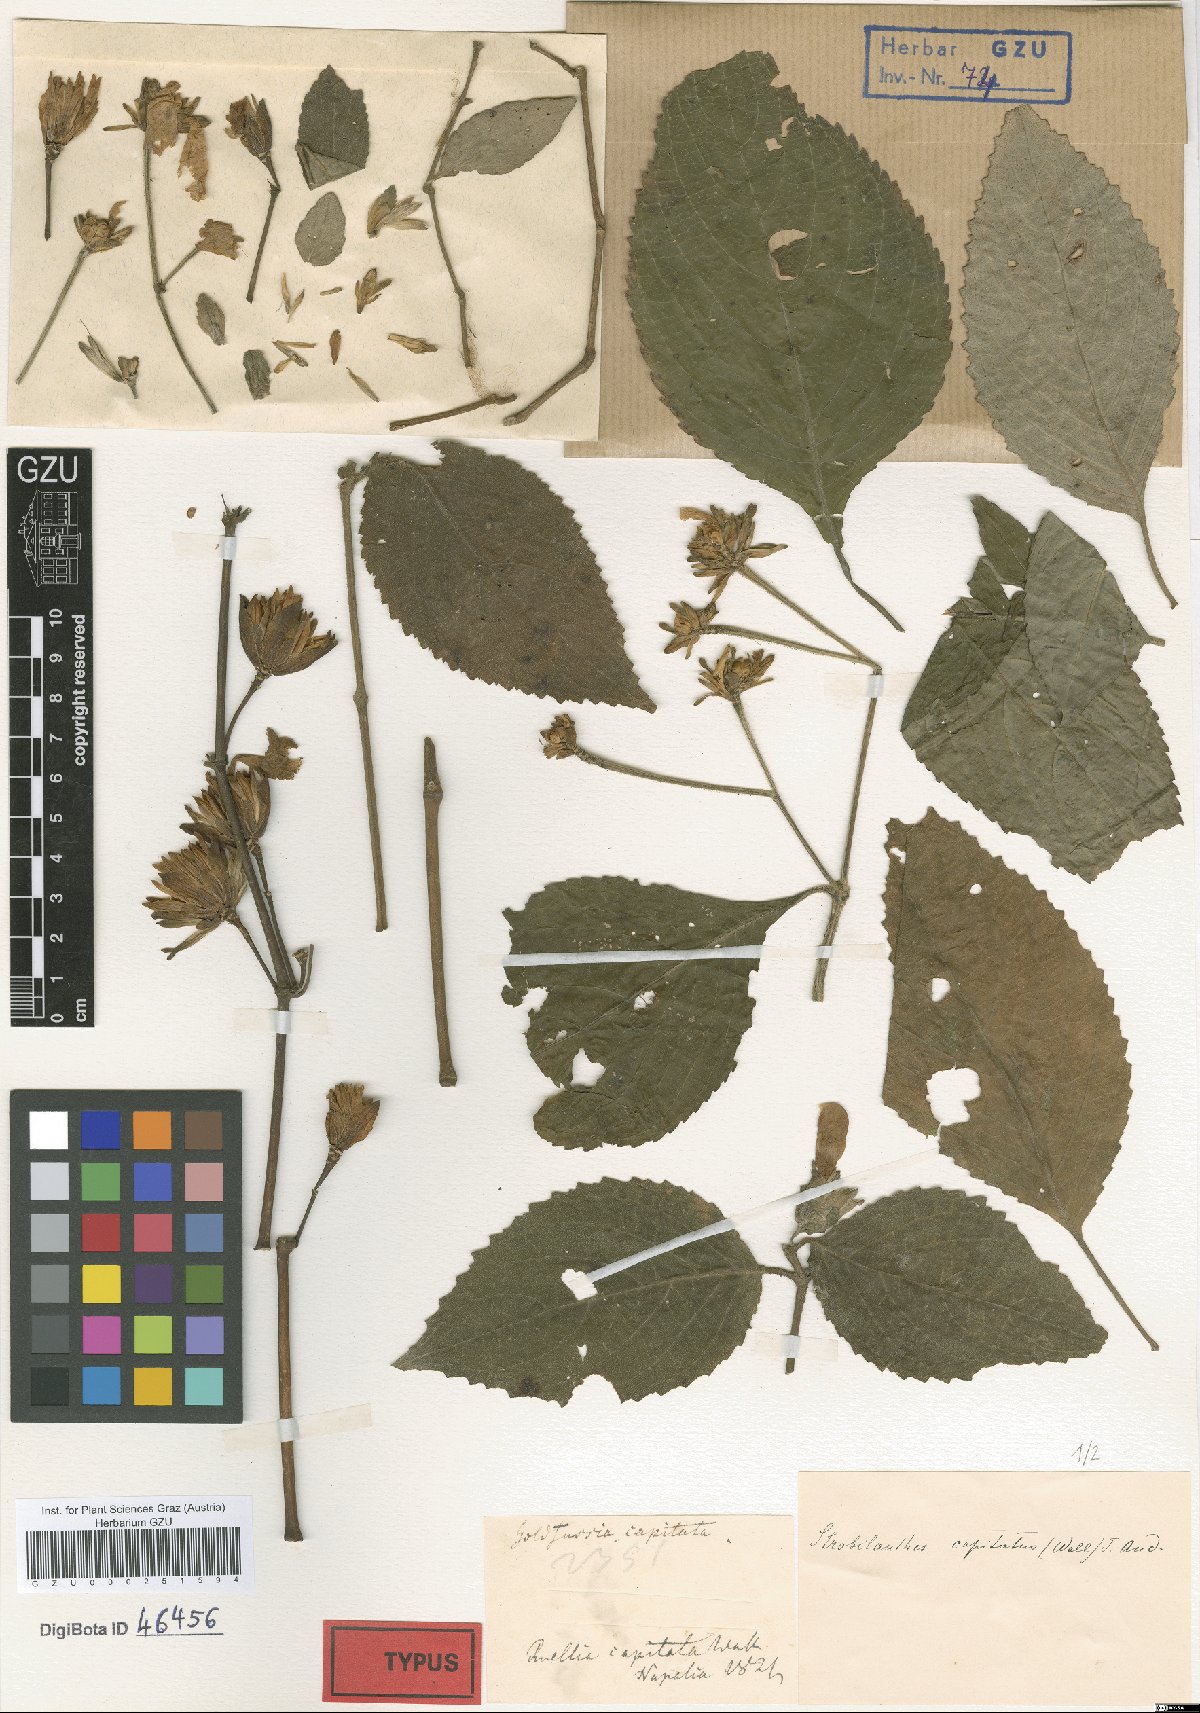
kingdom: Plantae
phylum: Tracheophyta
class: Magnoliopsida
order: Lamiales
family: Acanthaceae
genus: Strobilanthes
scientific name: Strobilanthes capitata
